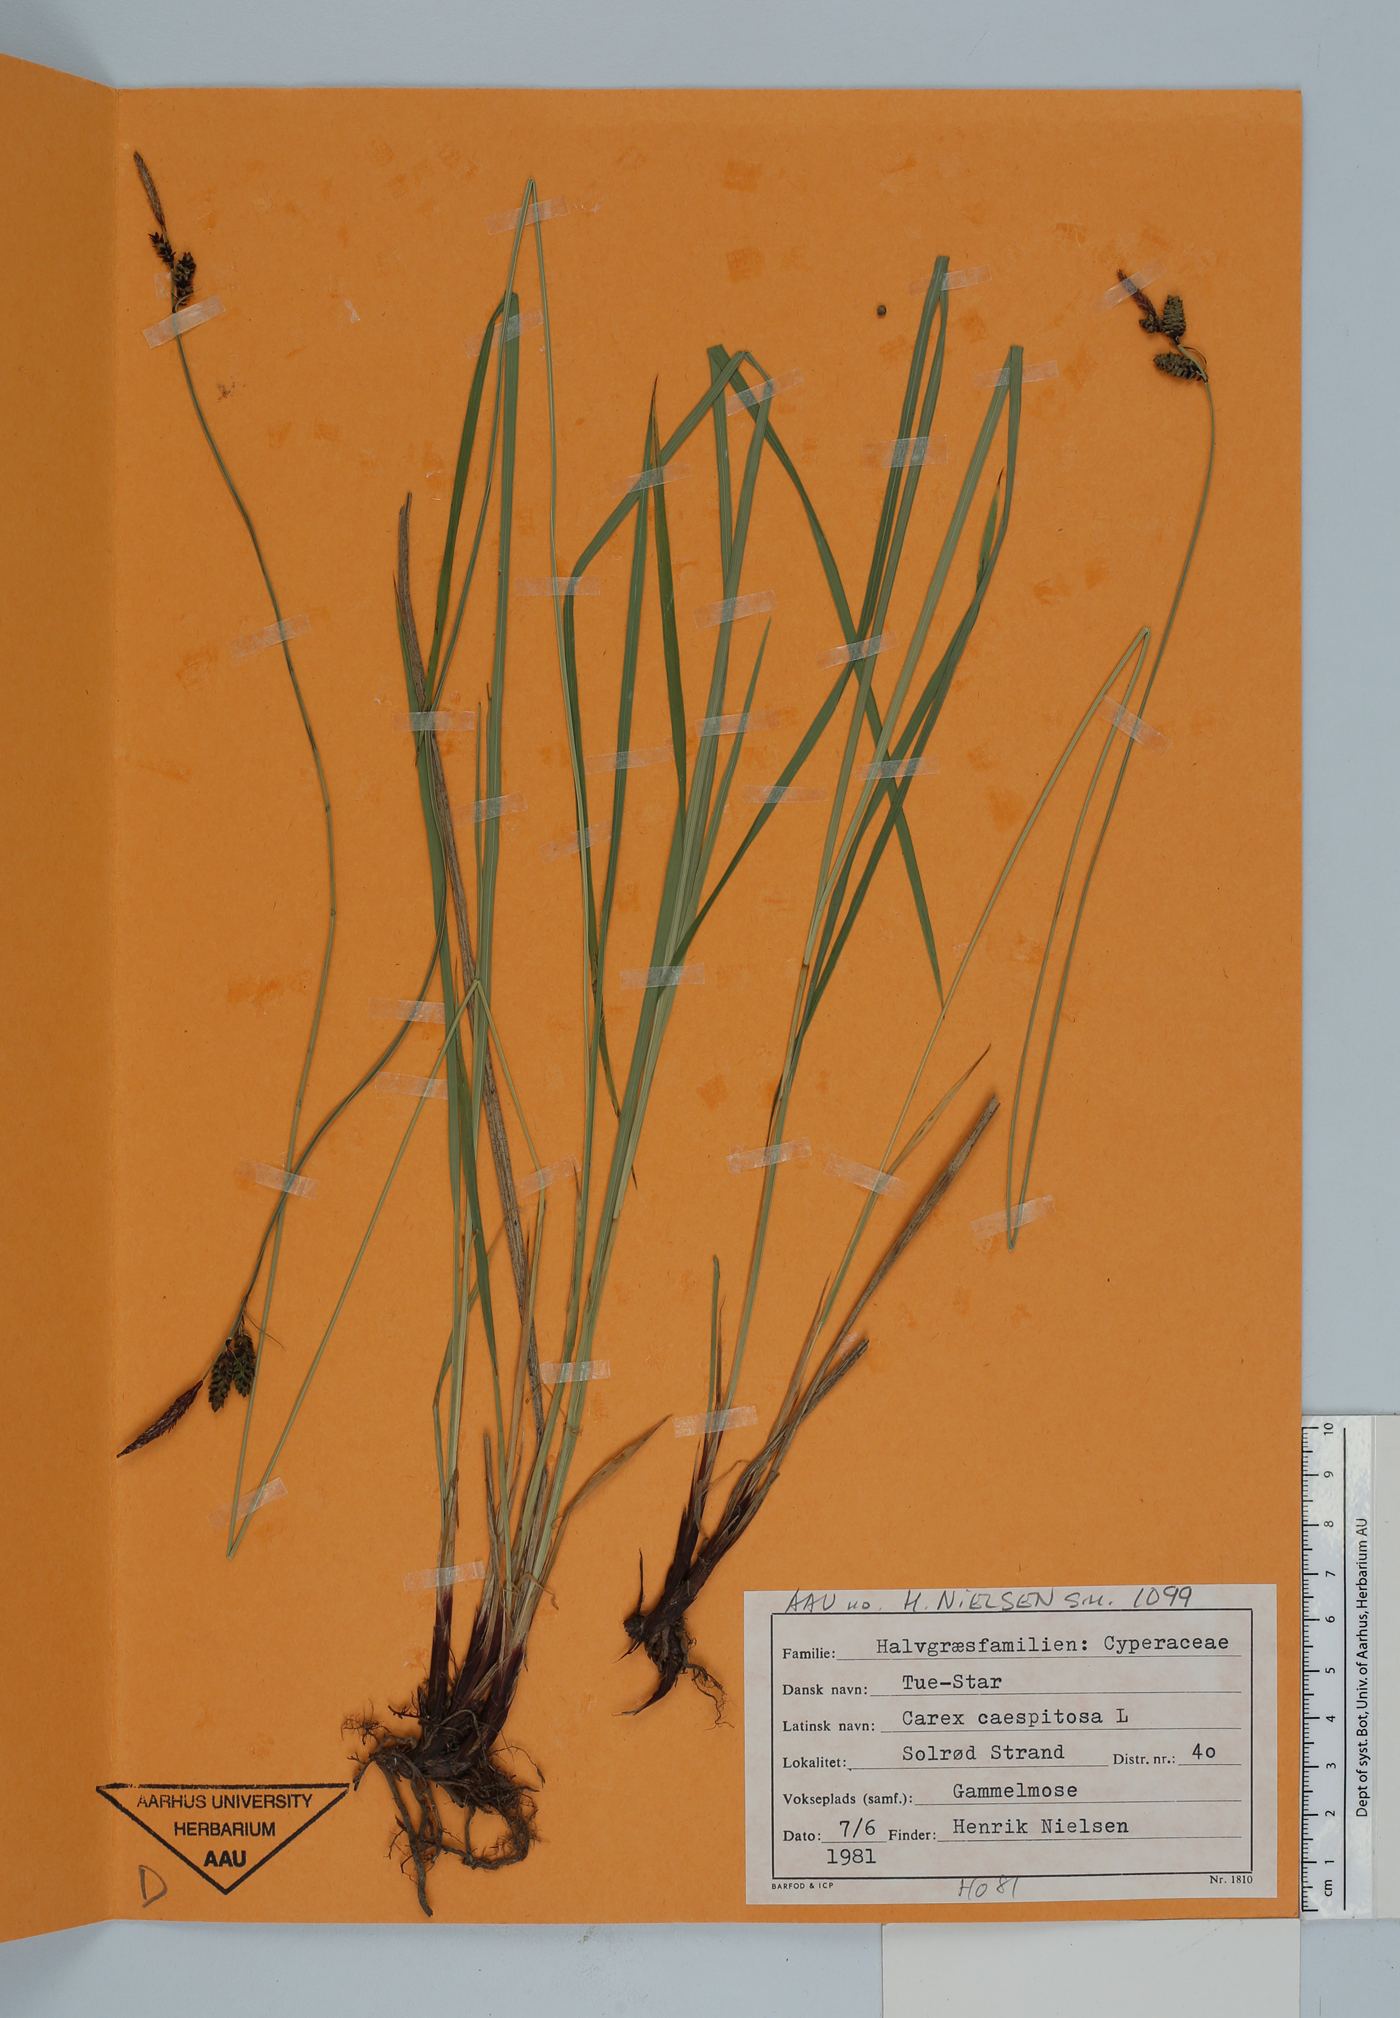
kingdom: Plantae
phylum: Tracheophyta
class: Liliopsida
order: Poales
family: Cyperaceae
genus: Carex
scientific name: Carex cespitosa
